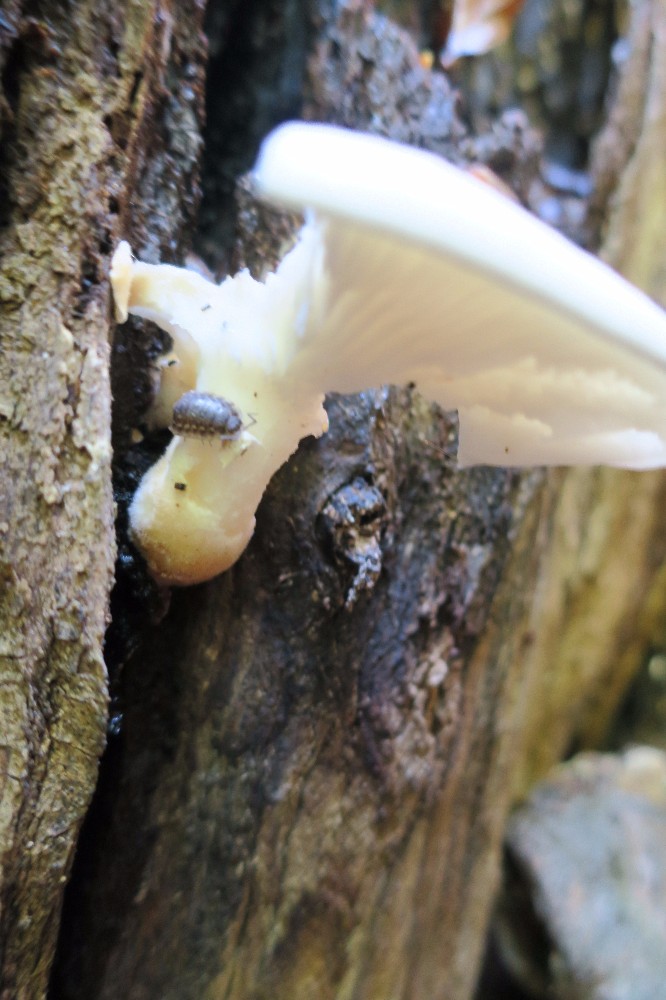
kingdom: Fungi
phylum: Basidiomycota
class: Agaricomycetes
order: Agaricales
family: Pleurotaceae
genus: Pleurotus
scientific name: Pleurotus dryinus
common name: korkagtig østershat
